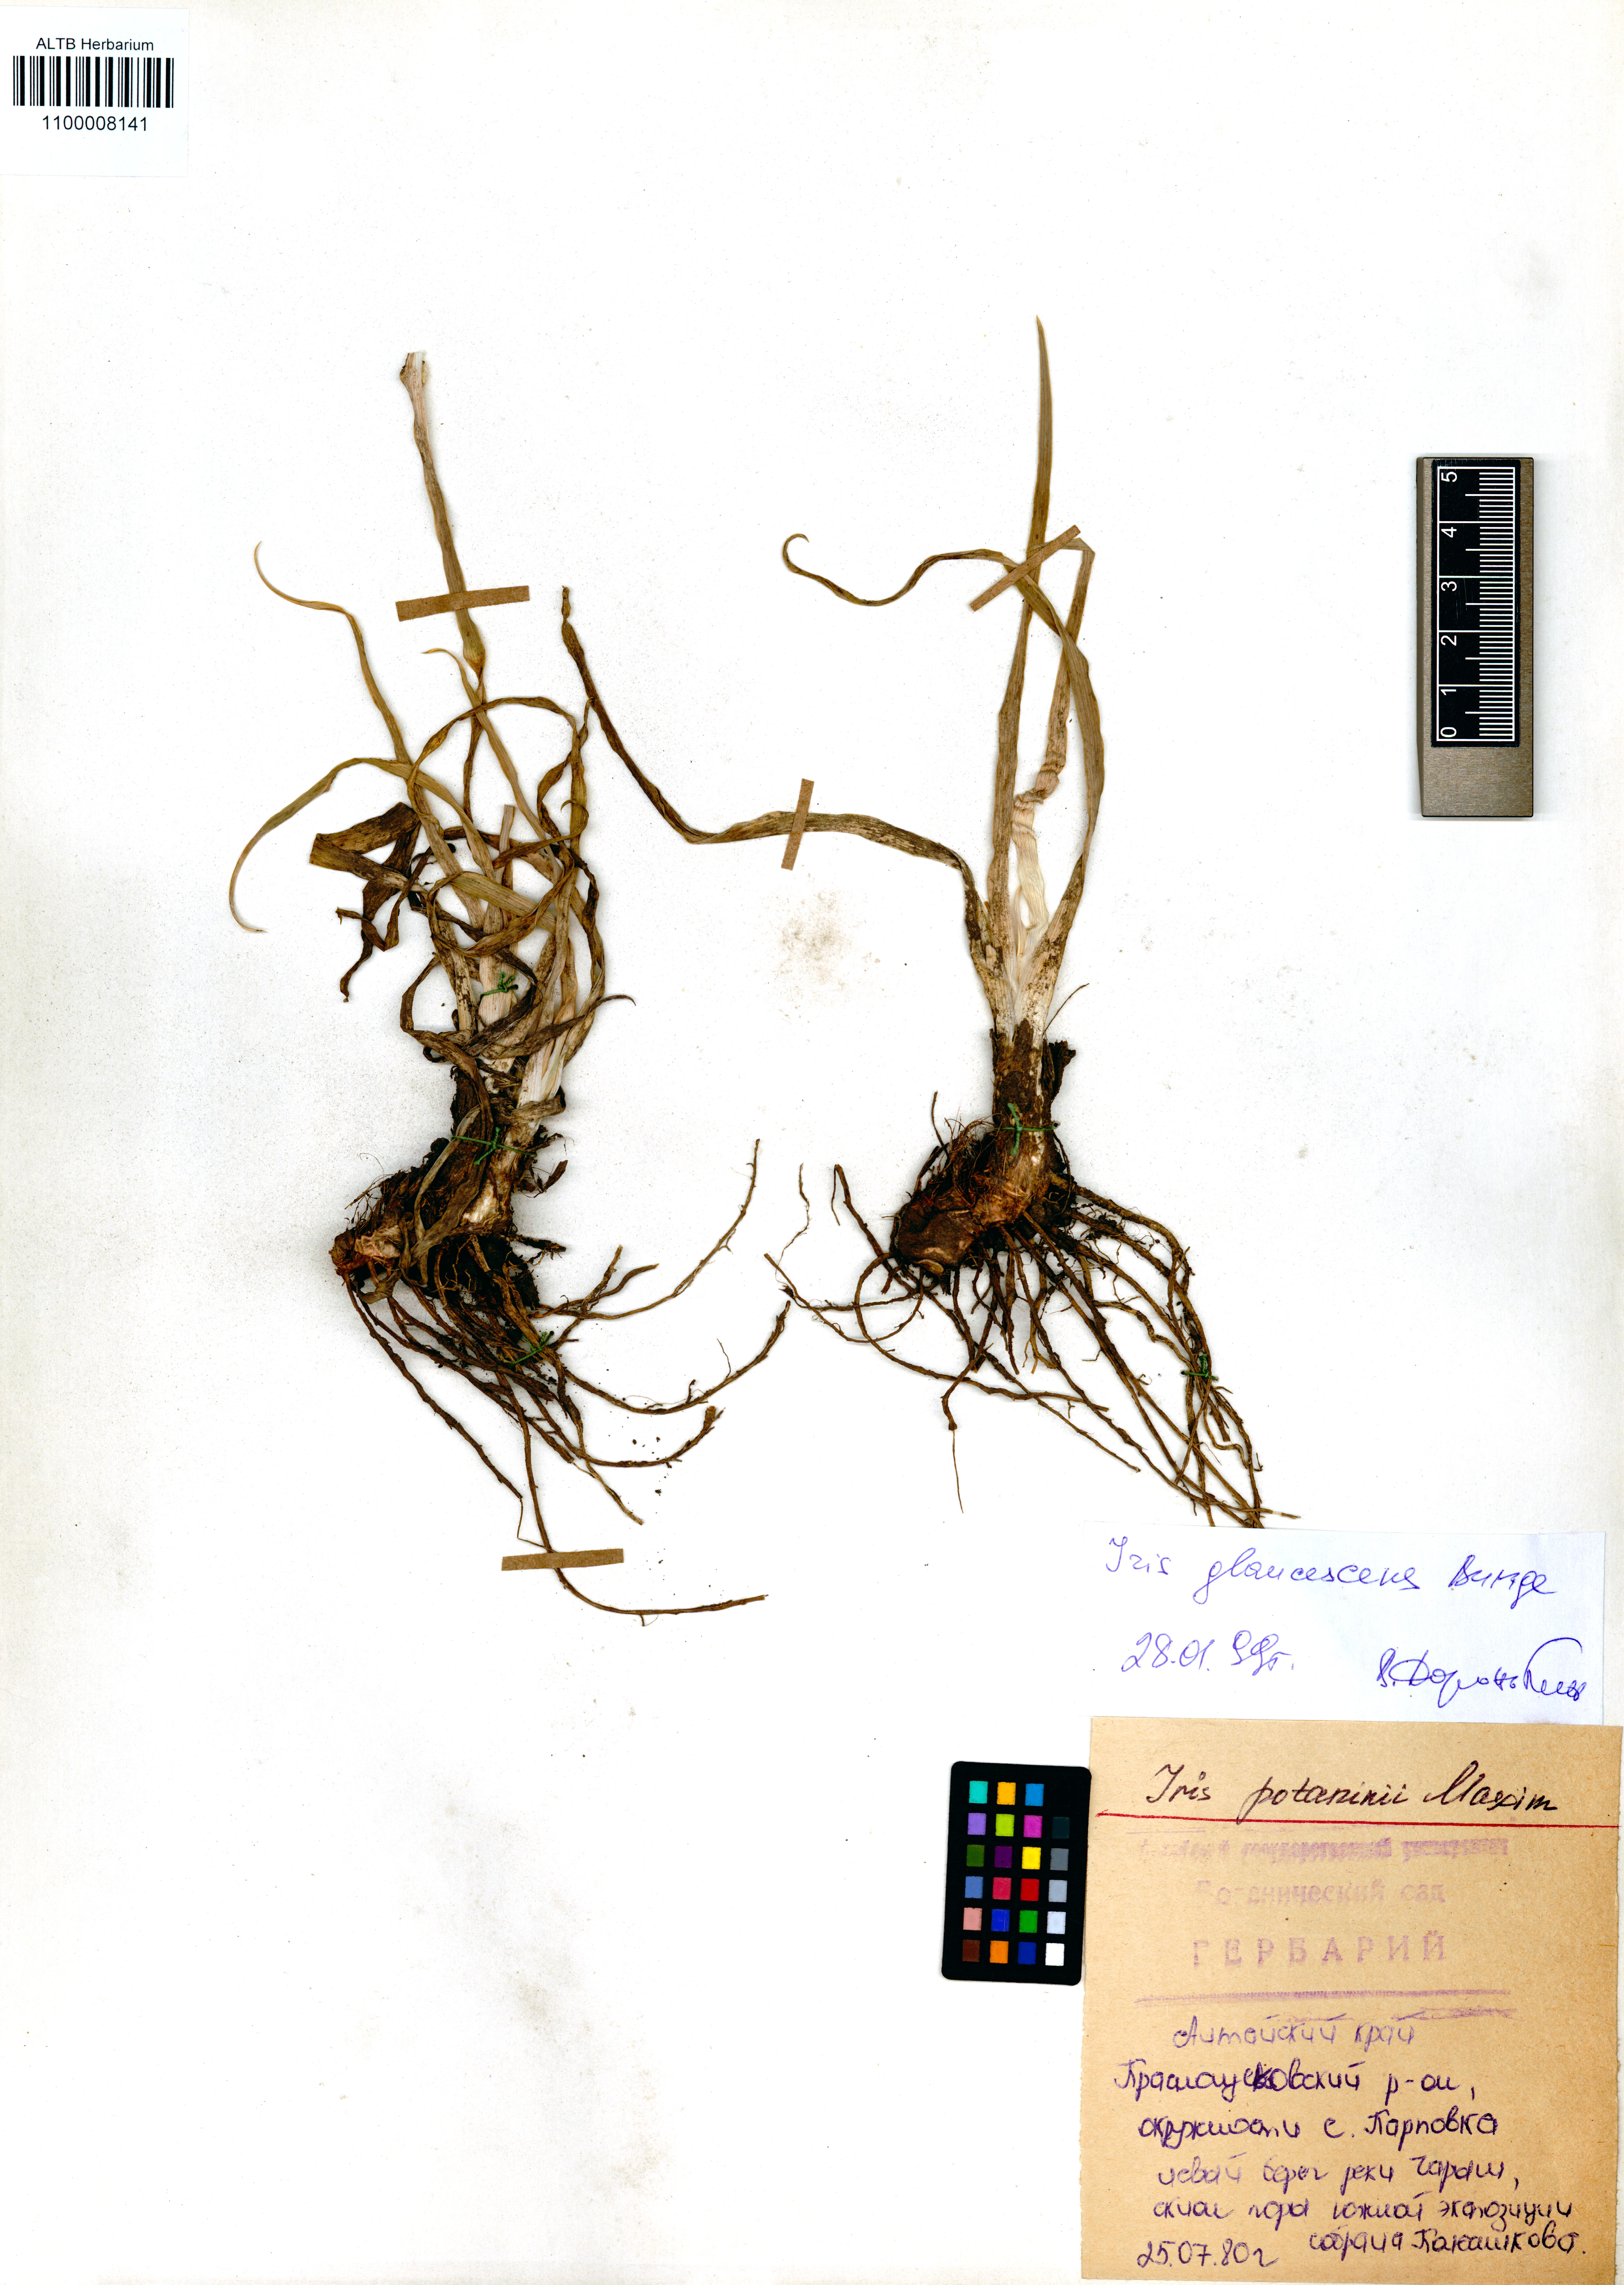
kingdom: Plantae
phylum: Tracheophyta
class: Liliopsida
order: Asparagales
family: Iridaceae
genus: Iris
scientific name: Iris potaninii
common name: Curl-sheath iris
